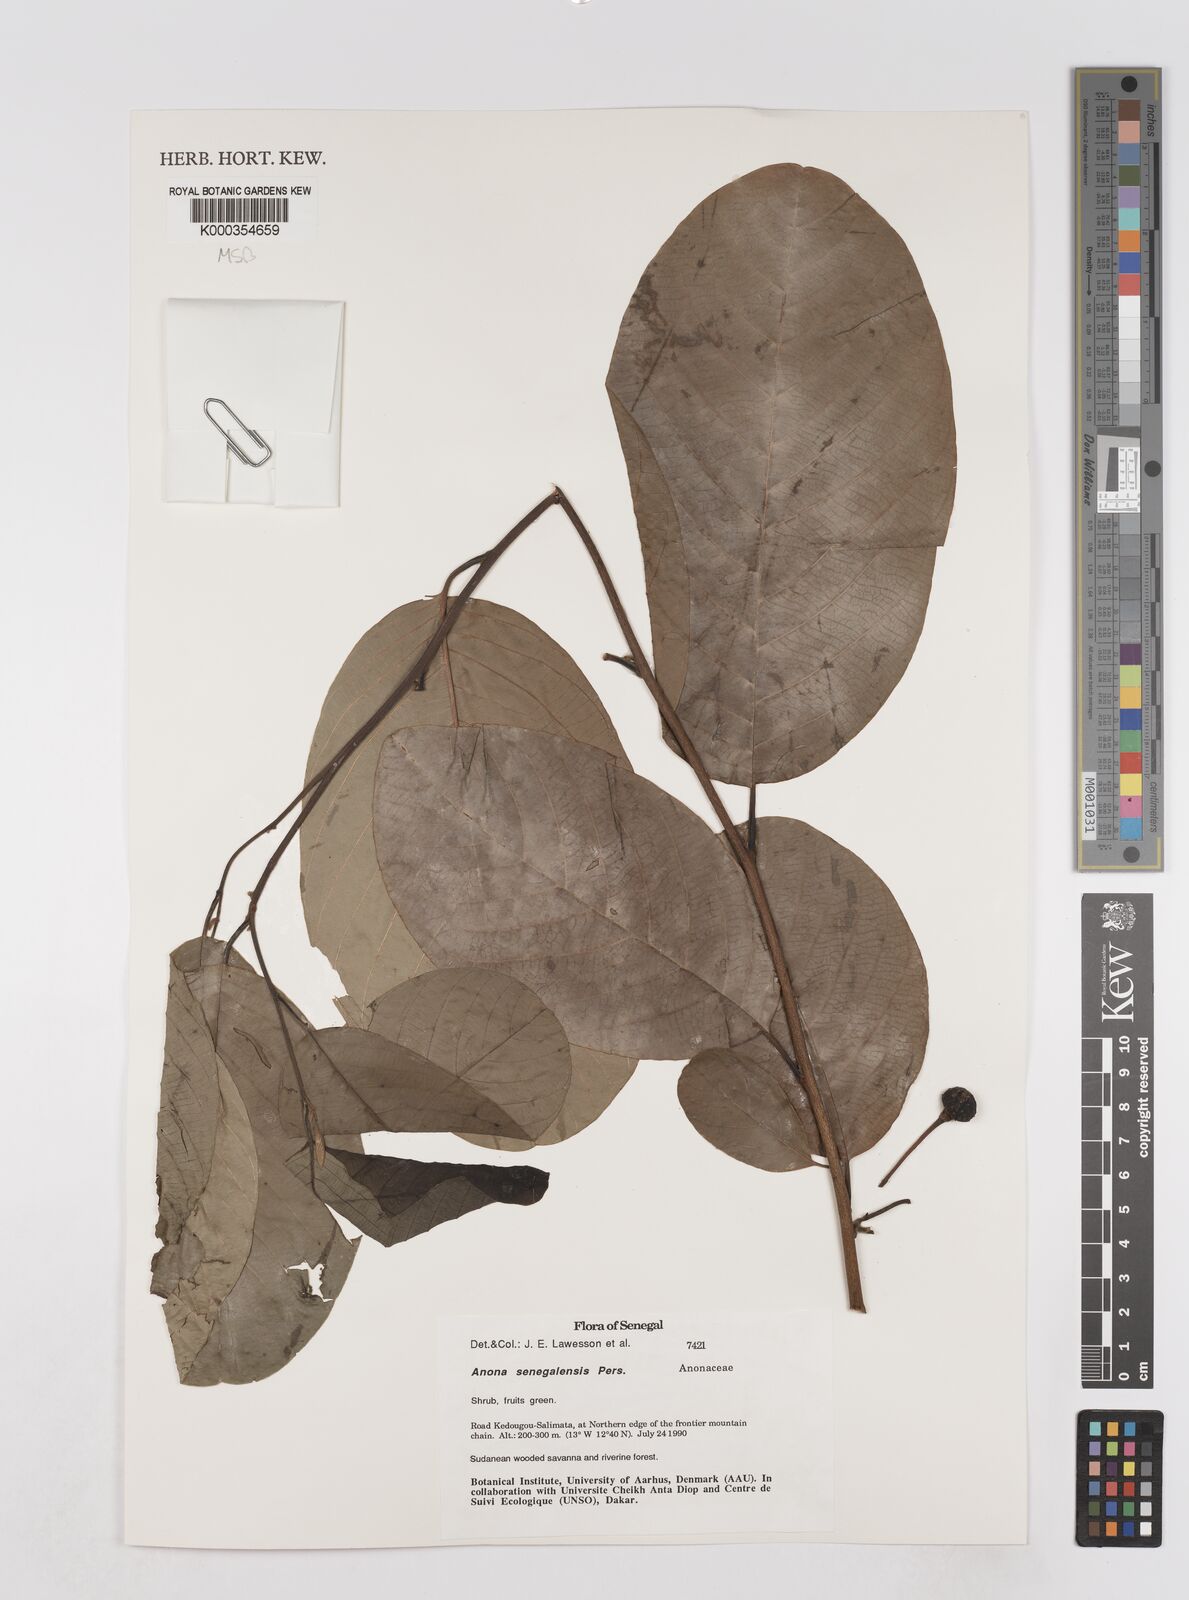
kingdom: Plantae
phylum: Tracheophyta
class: Magnoliopsida
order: Magnoliales
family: Annonaceae
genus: Annona
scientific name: Annona senegalensis
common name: Wild custard-apple
